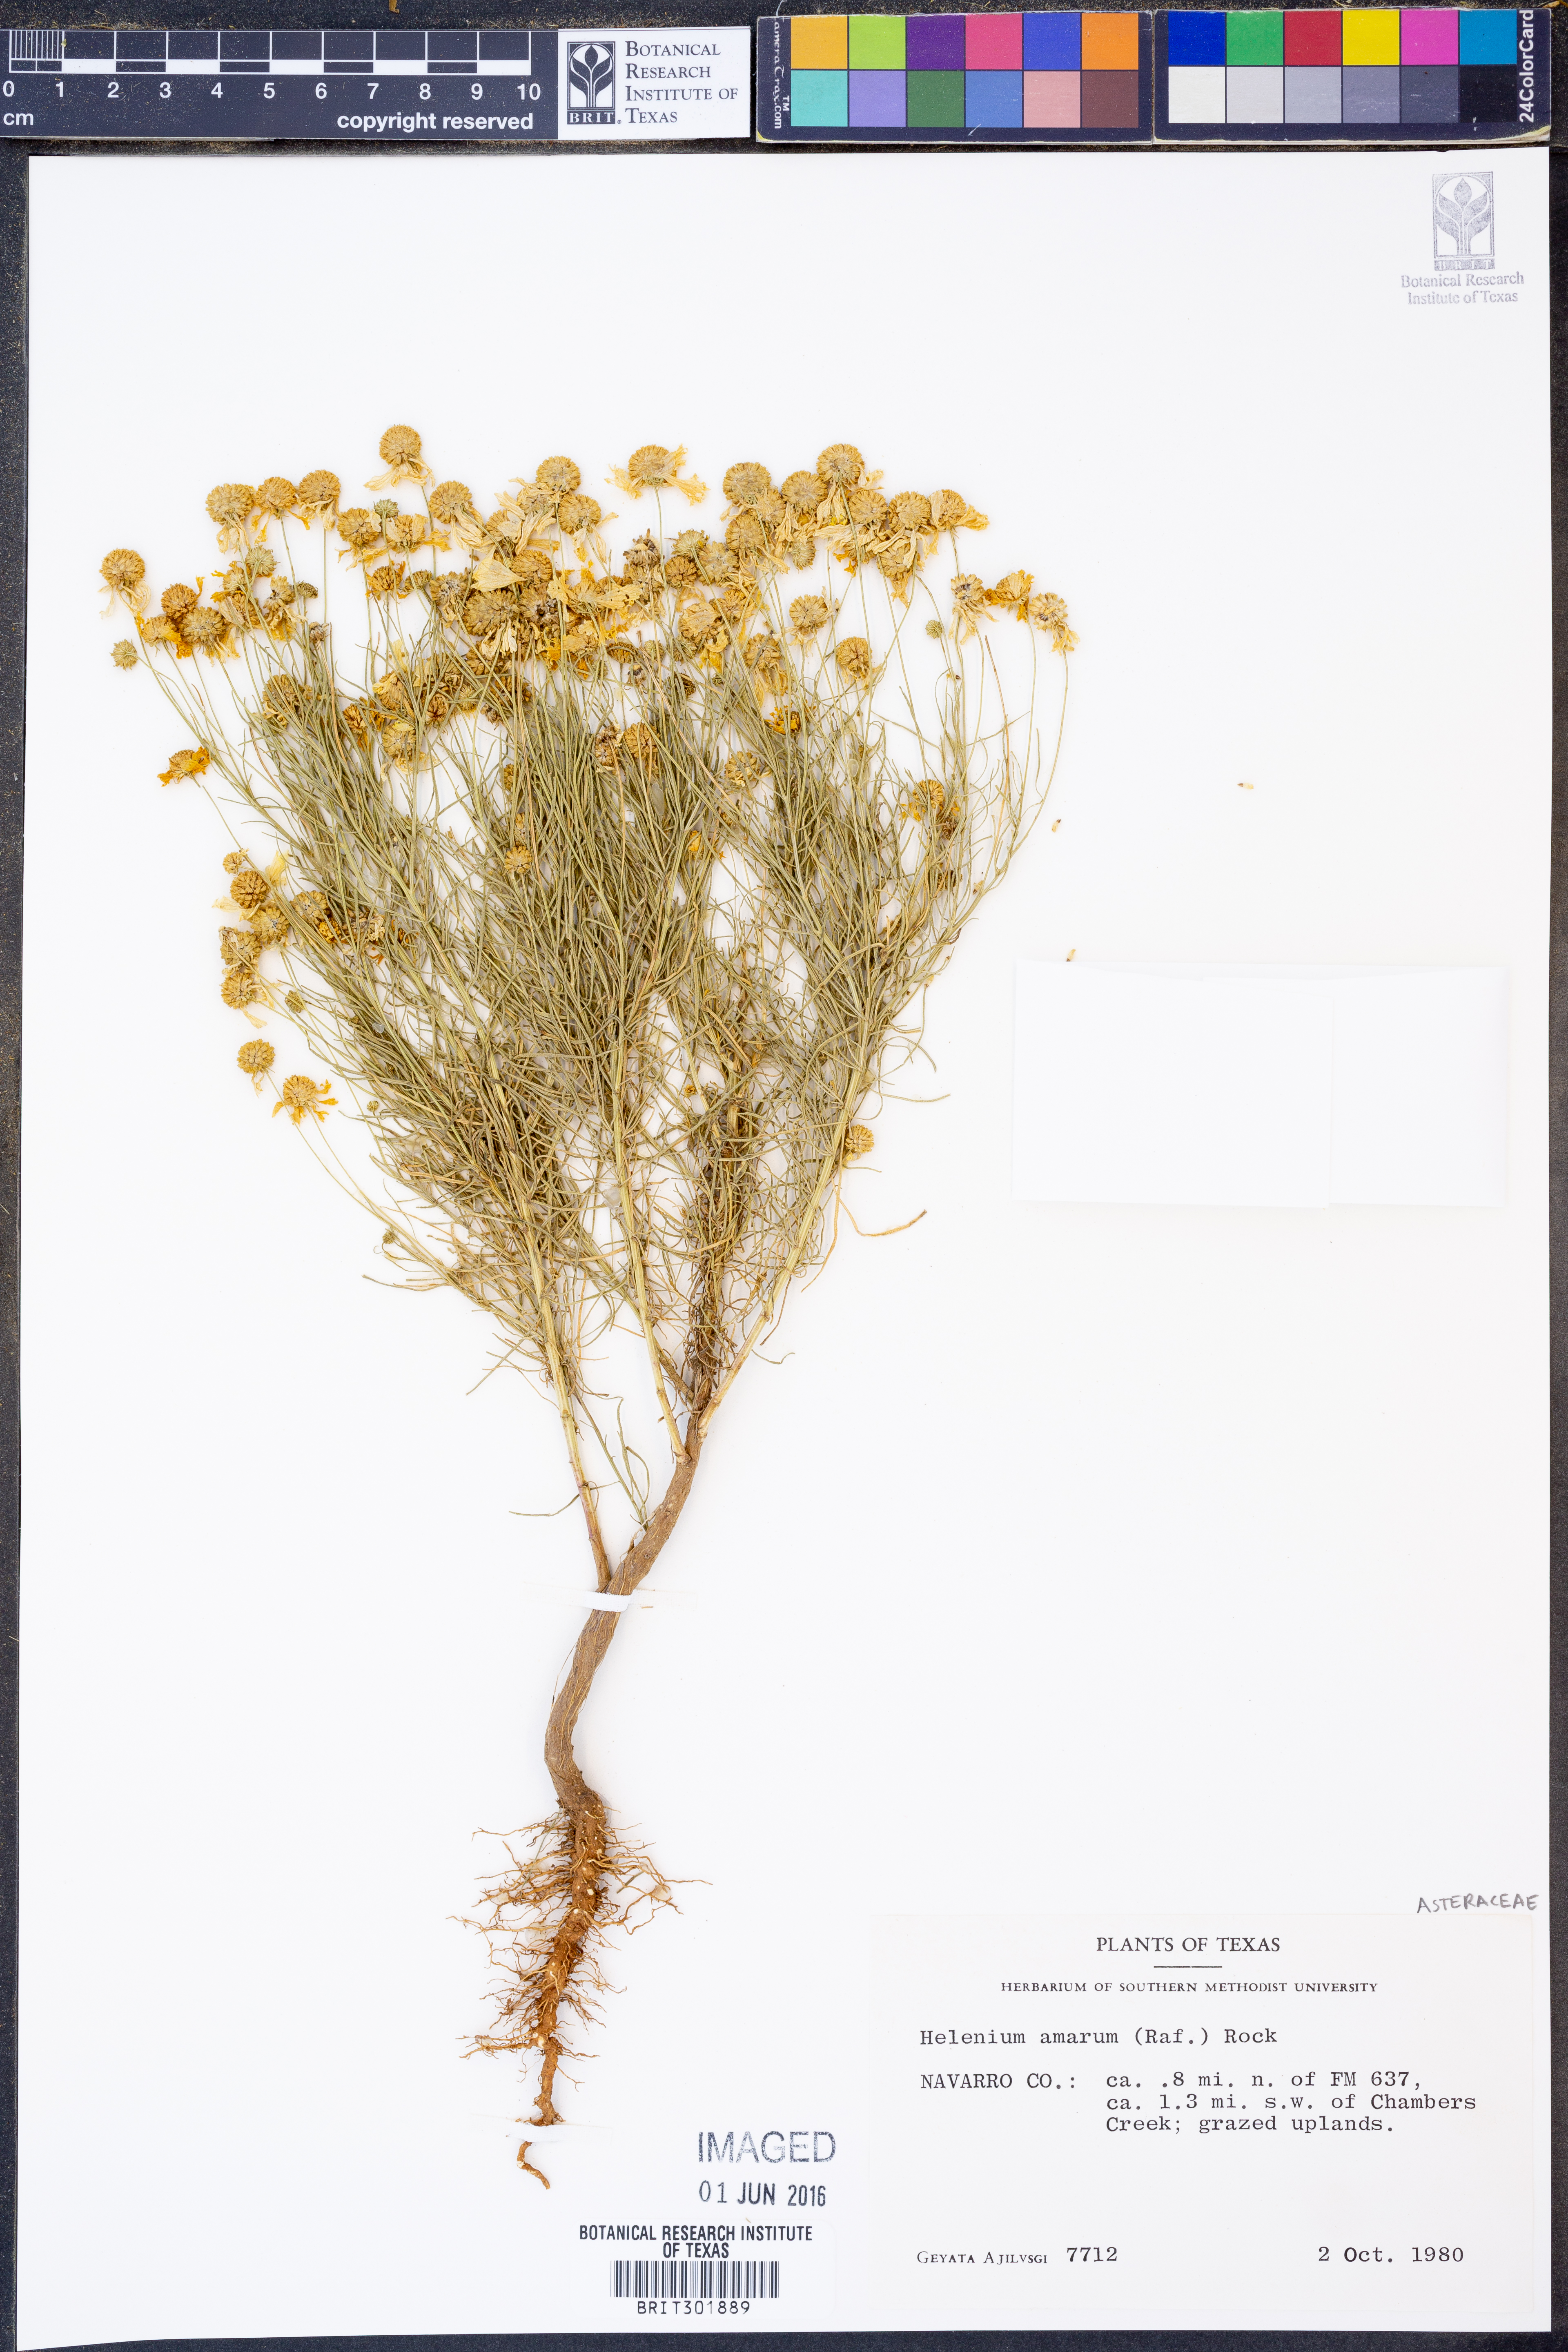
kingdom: Plantae
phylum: Tracheophyta
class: Magnoliopsida
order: Asterales
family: Asteraceae
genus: Helenium
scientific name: Helenium amarum
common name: Bitter sneezeweed
